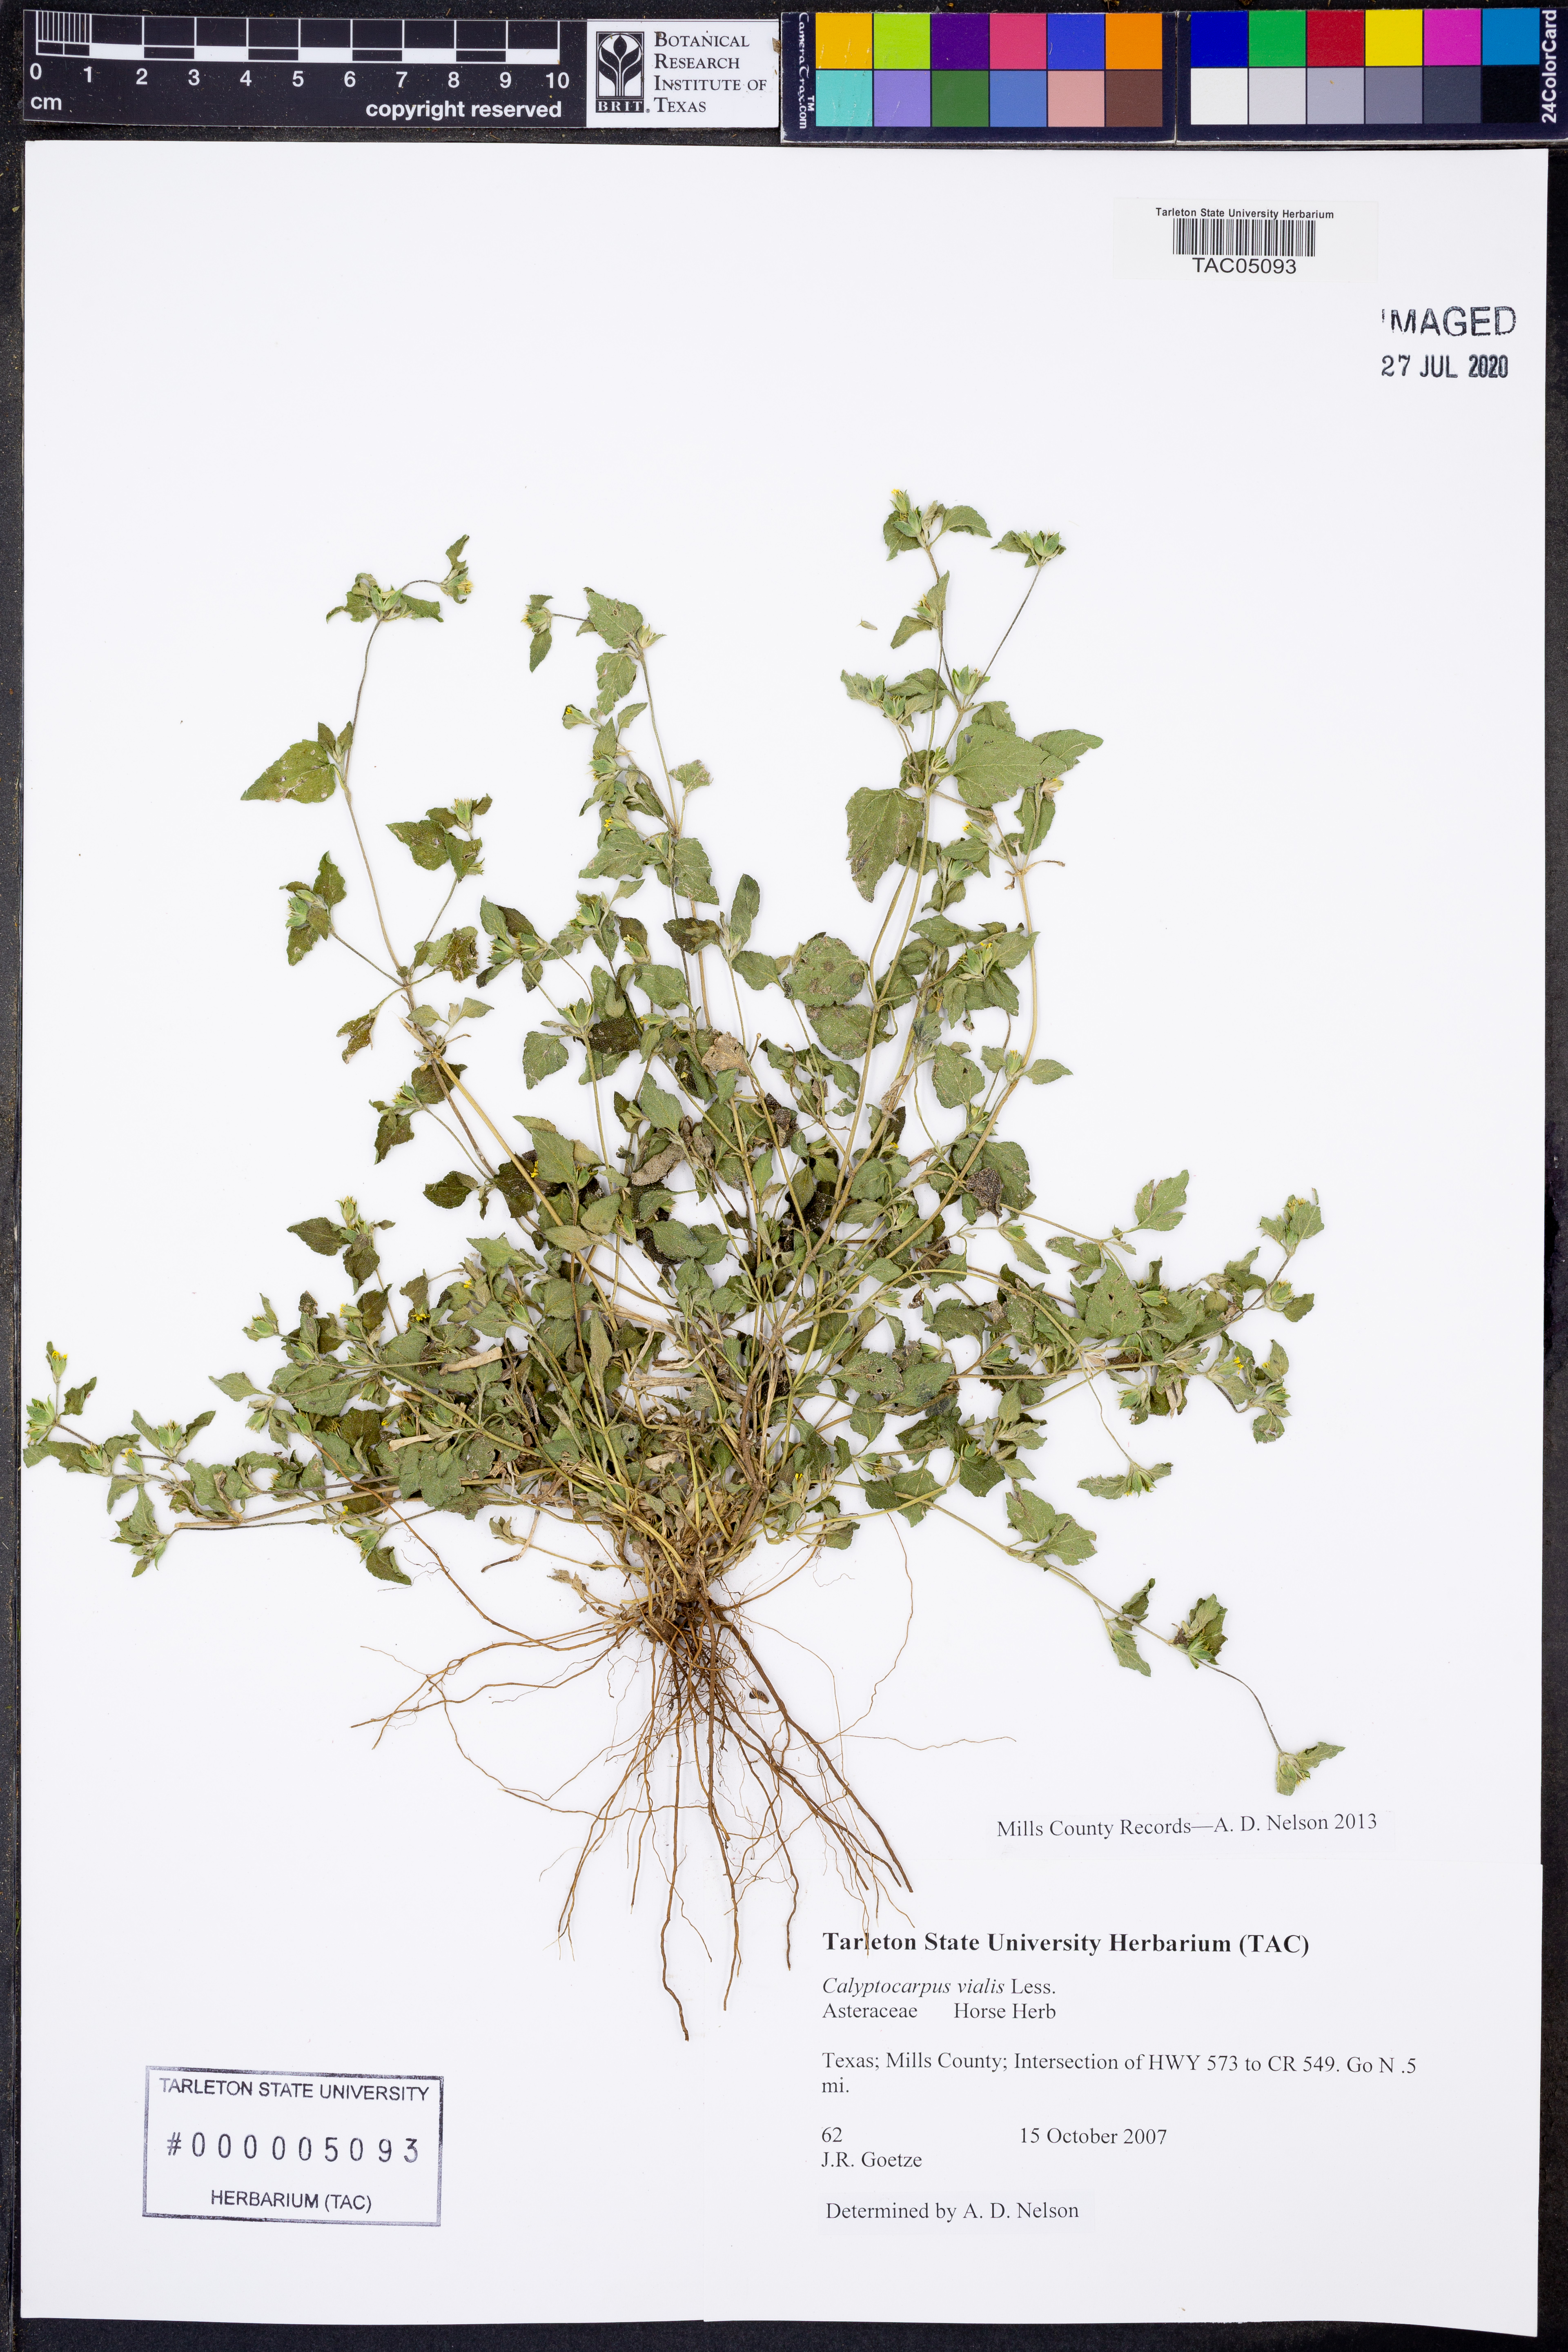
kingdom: Plantae
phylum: Tracheophyta
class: Magnoliopsida
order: Asterales
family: Asteraceae
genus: Calyptocarpus
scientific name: Calyptocarpus vialis
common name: Straggler daisy
